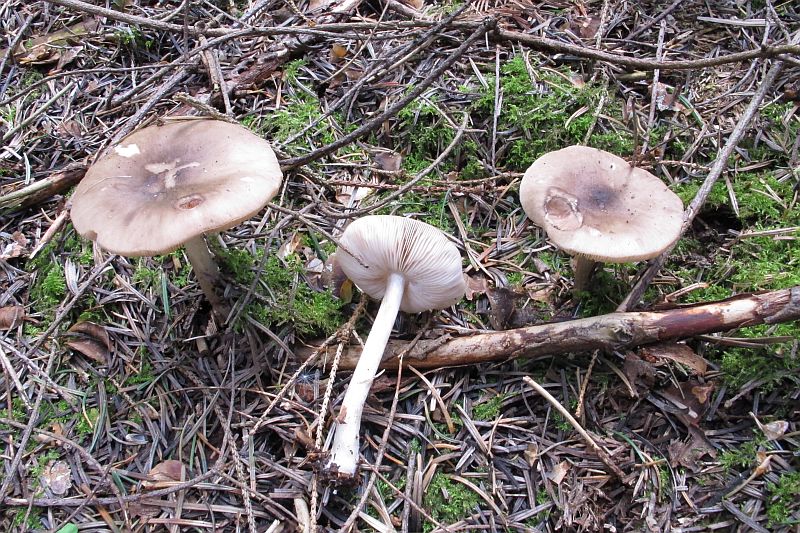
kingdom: Fungi
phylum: Basidiomycota
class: Agaricomycetes
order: Agaricales
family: Pluteaceae
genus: Pluteus
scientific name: Pluteus primus
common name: tidlig skærmhat
